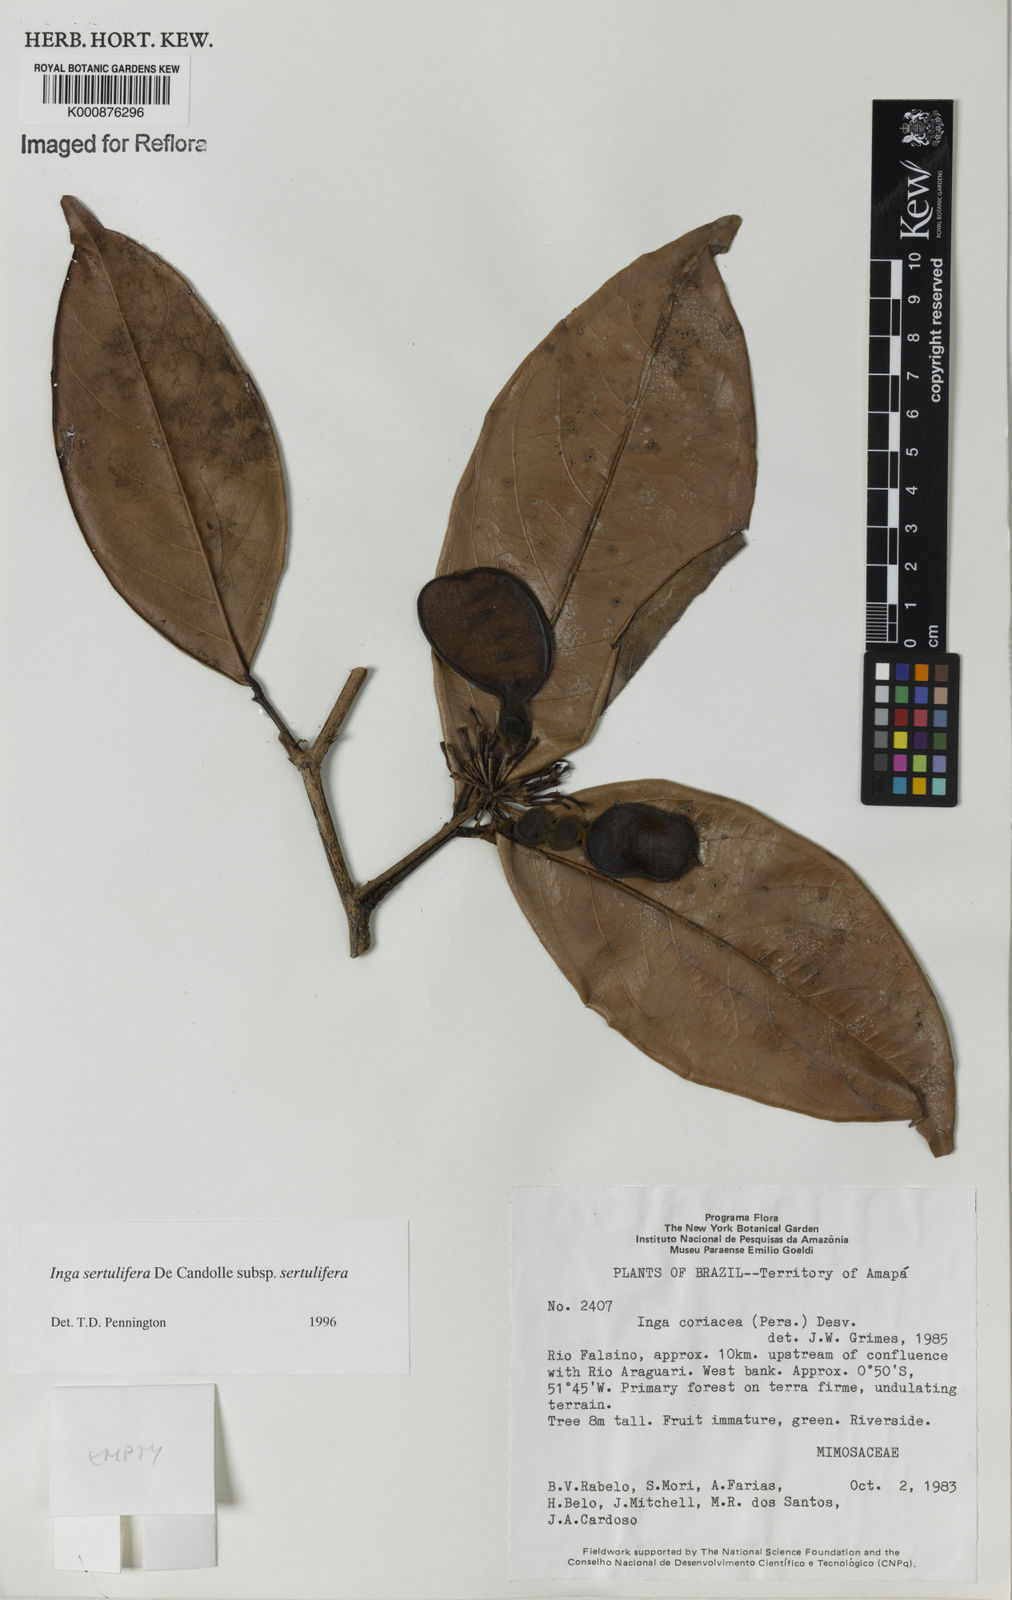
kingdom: Plantae
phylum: Tracheophyta
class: Magnoliopsida
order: Fabales
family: Fabaceae
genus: Inga
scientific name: Inga sertulifera
